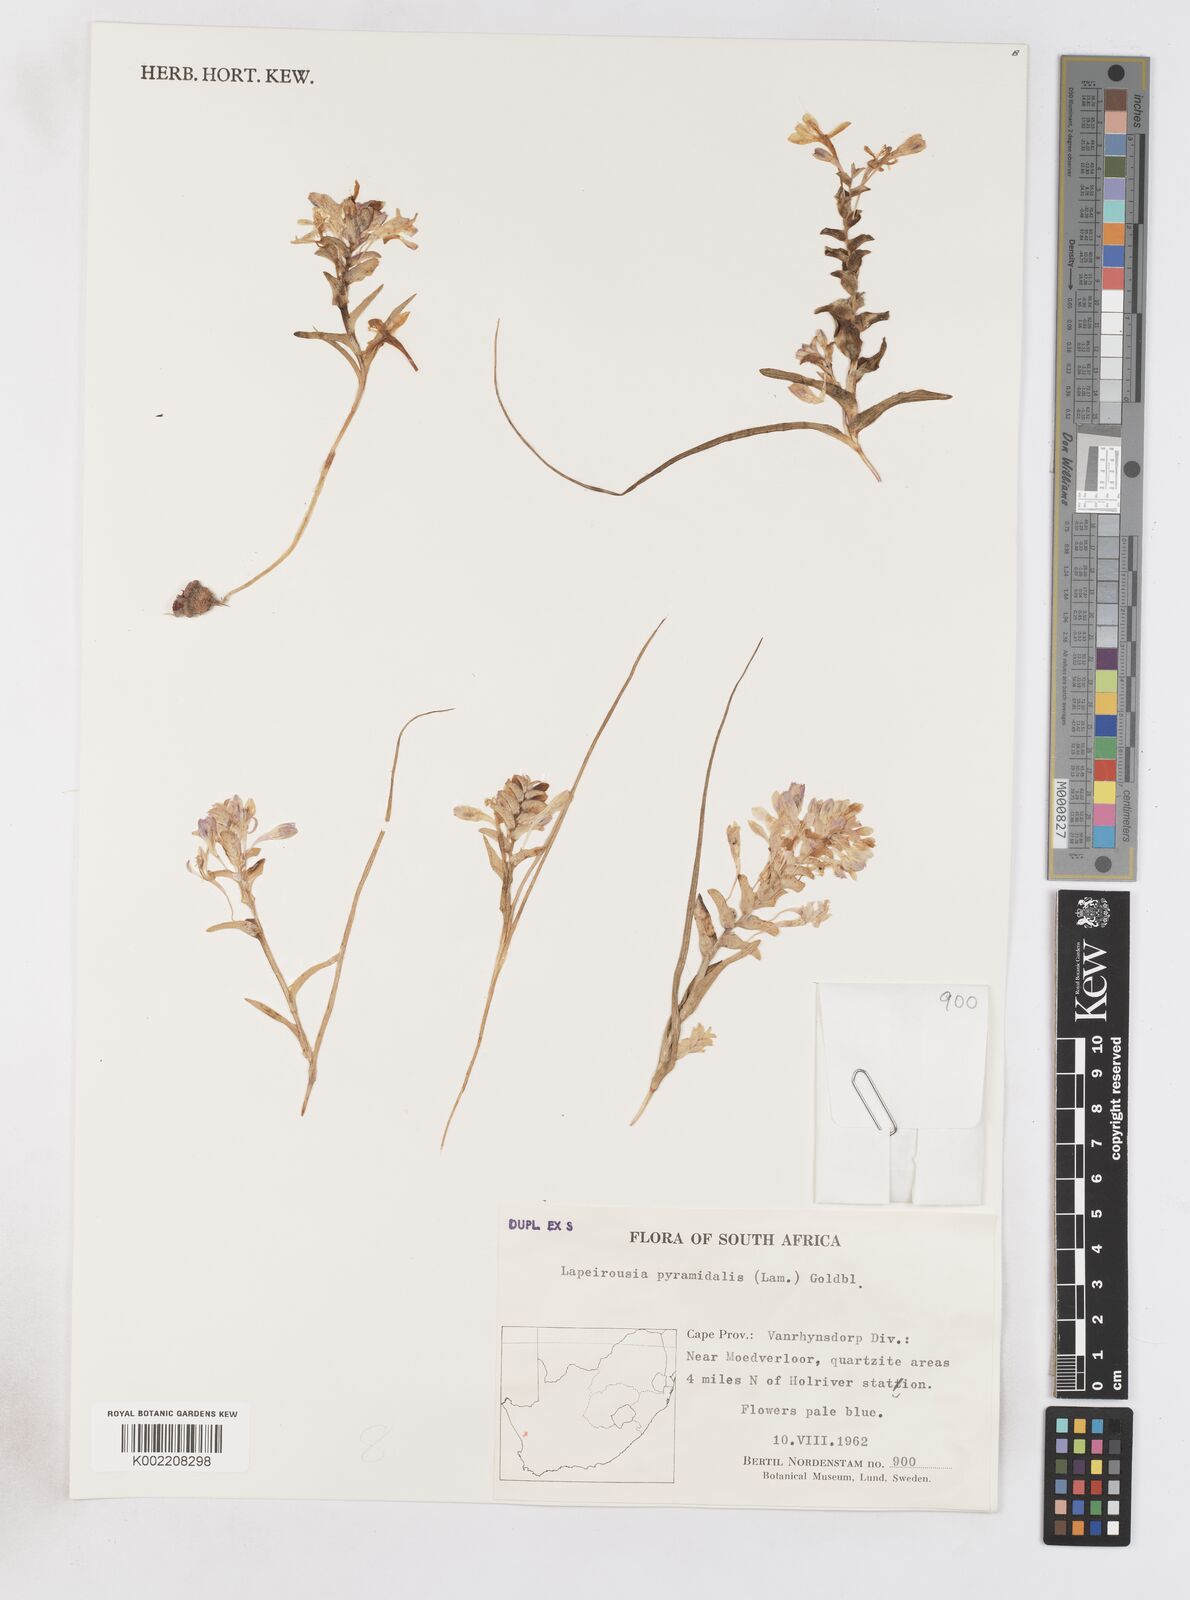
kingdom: Plantae
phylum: Tracheophyta
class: Liliopsida
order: Asparagales
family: Iridaceae
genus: Lapeirousia
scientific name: Lapeirousia pyramidalis
